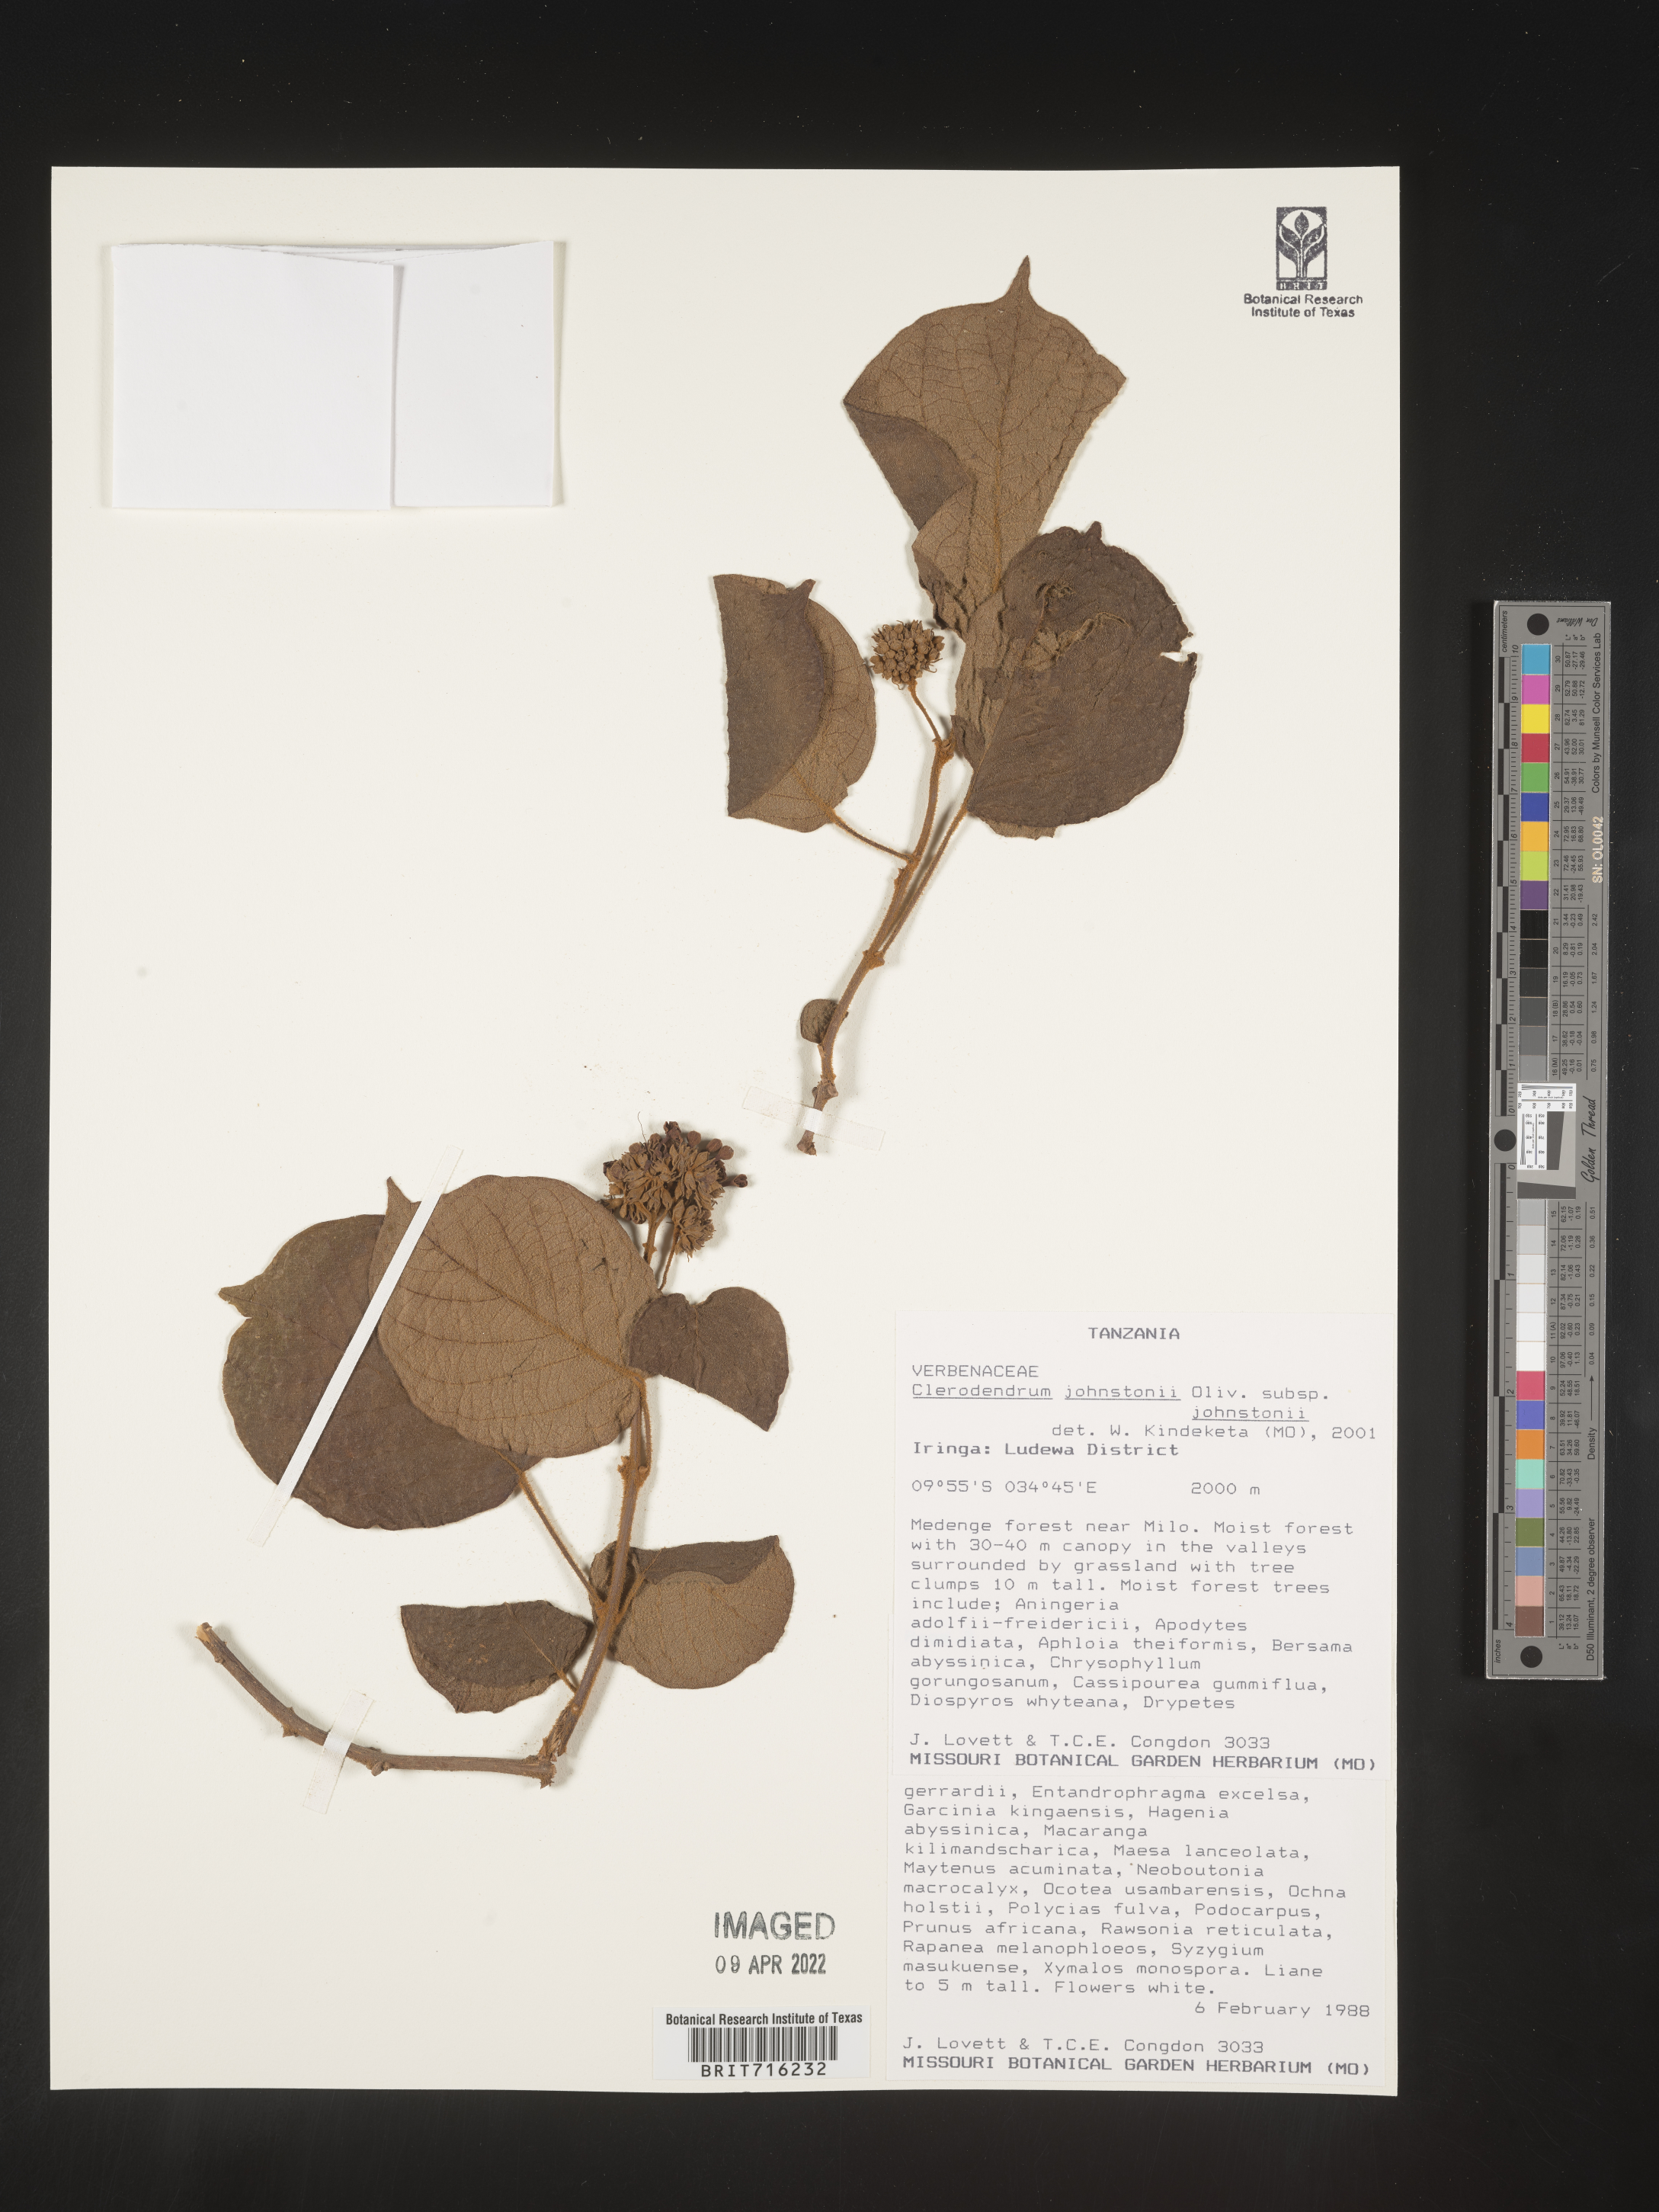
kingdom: Plantae
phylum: Tracheophyta
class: Magnoliopsida
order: Lamiales
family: Lamiaceae
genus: Clerodendrum
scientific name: Clerodendrum
